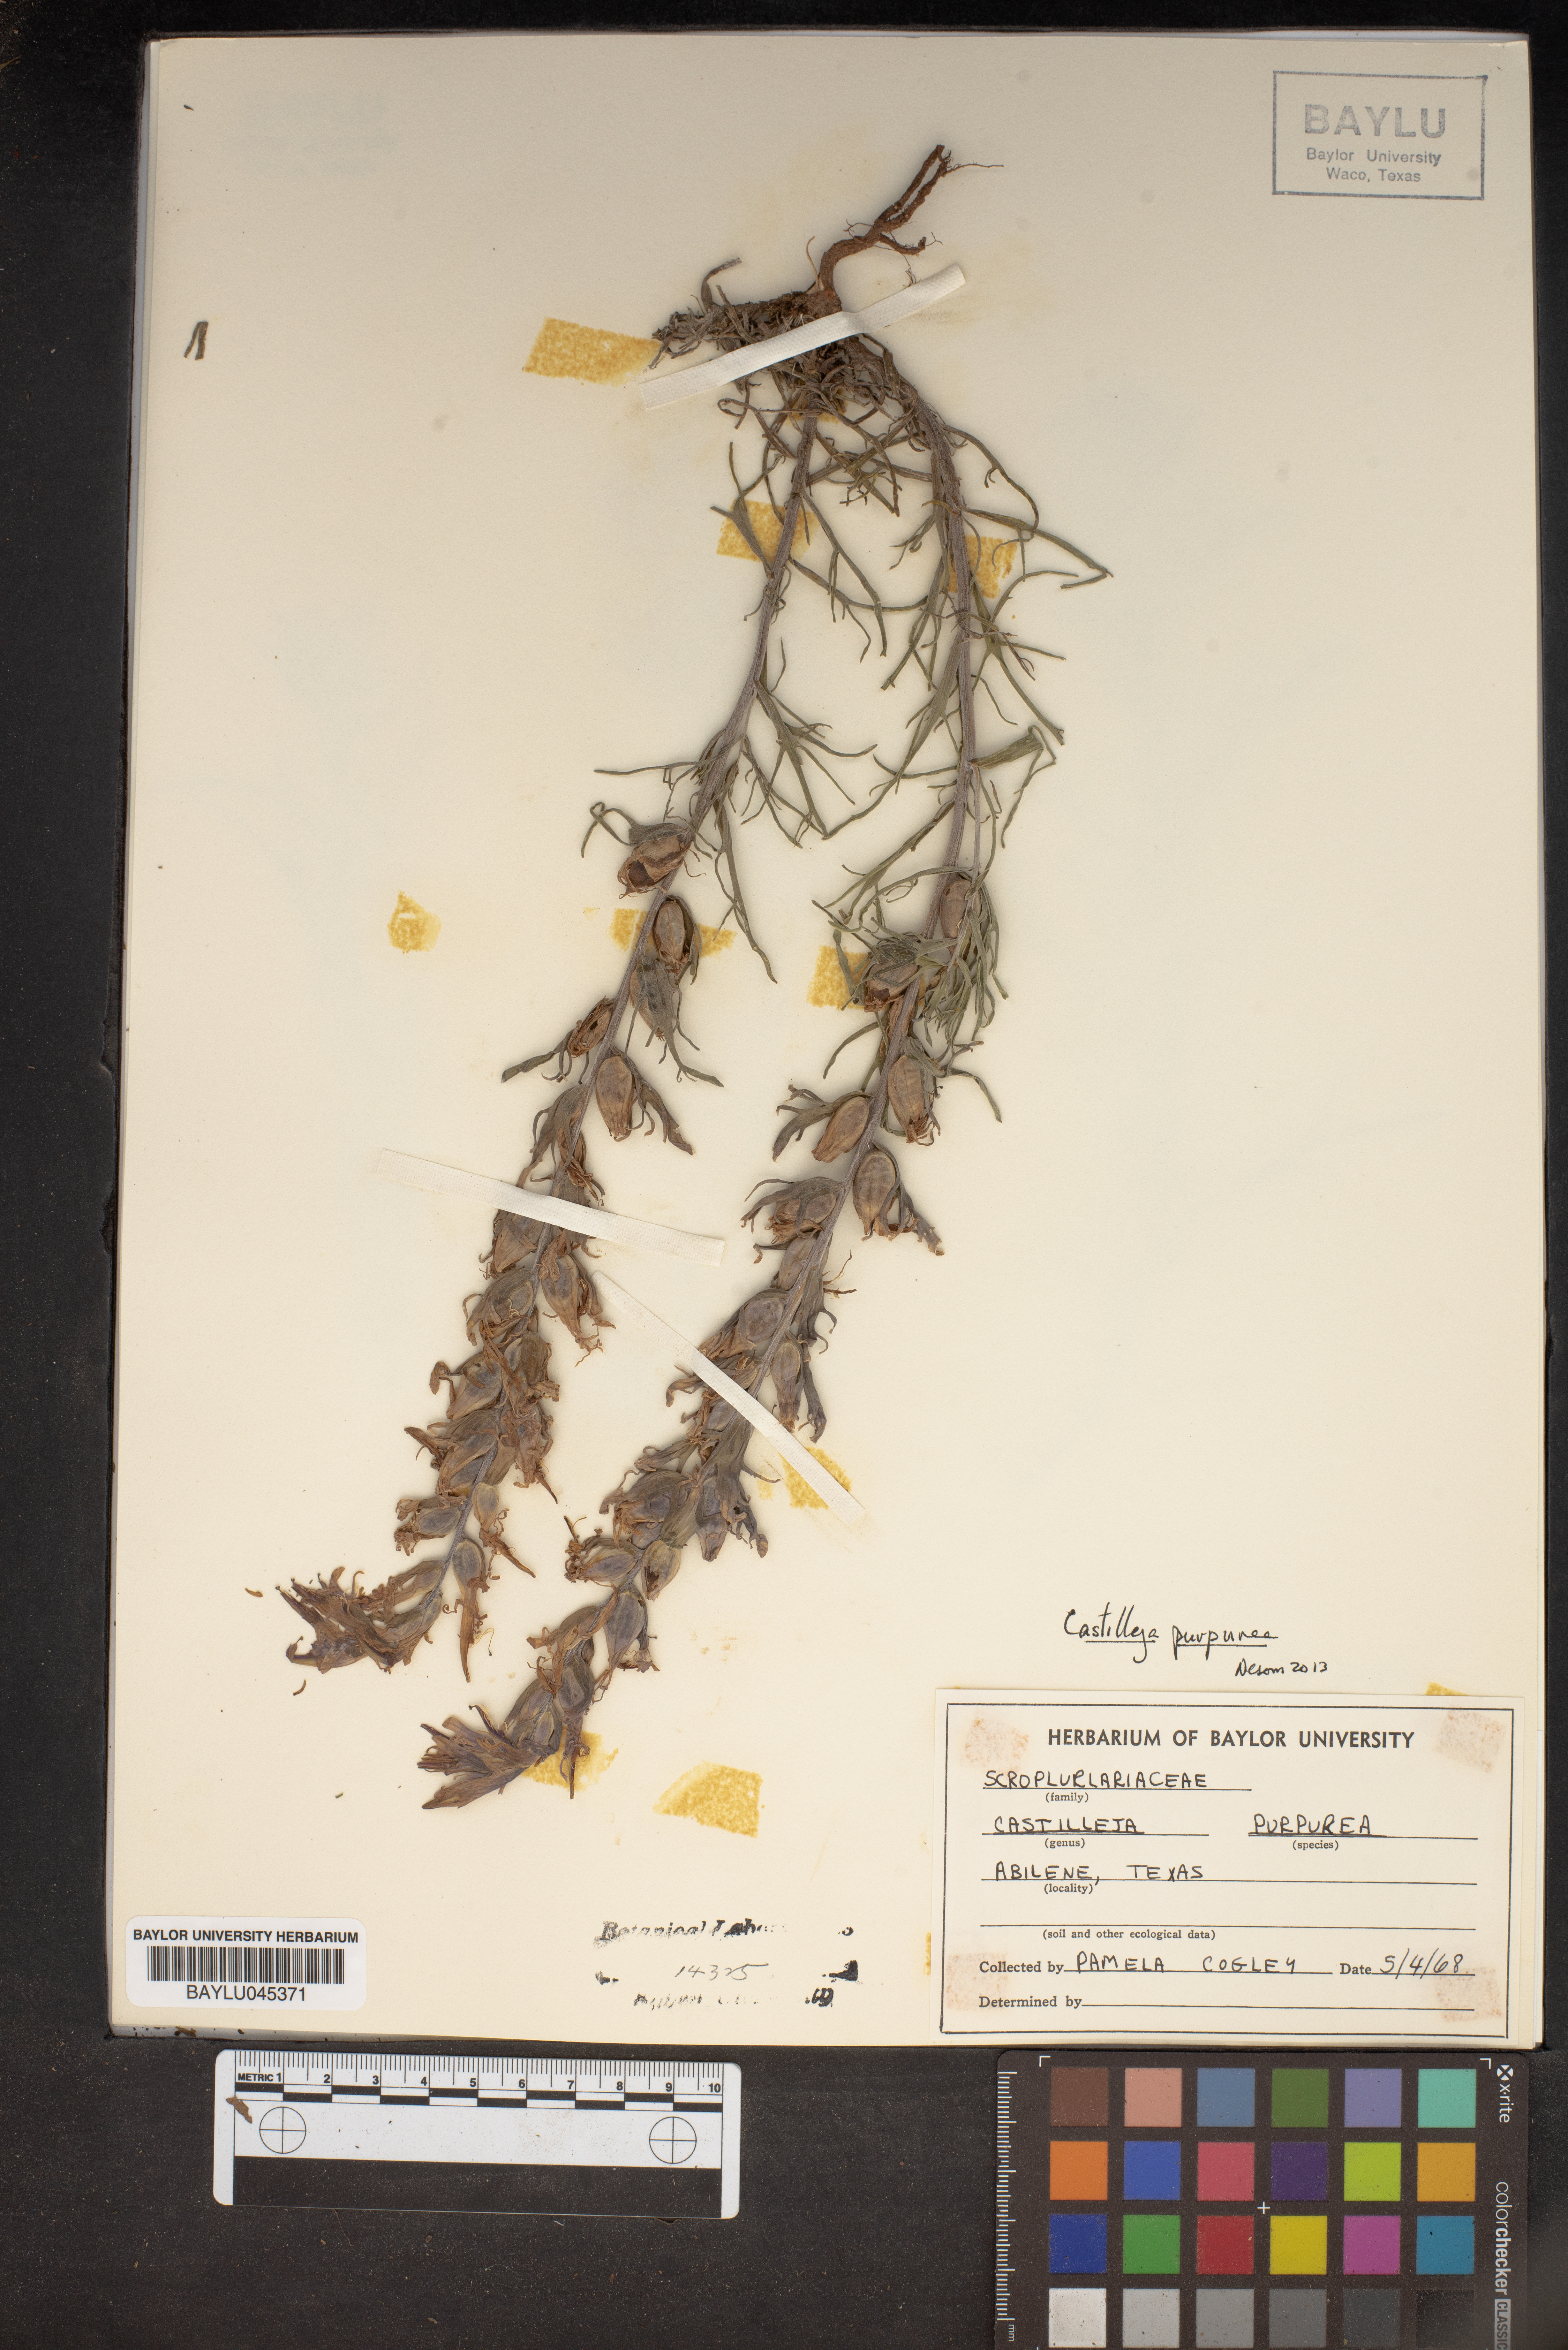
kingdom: Plantae
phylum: Tracheophyta
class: Magnoliopsida
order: Lamiales
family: Orobanchaceae
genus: Castilleja
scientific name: Castilleja purpurea
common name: Plains paintbrush
